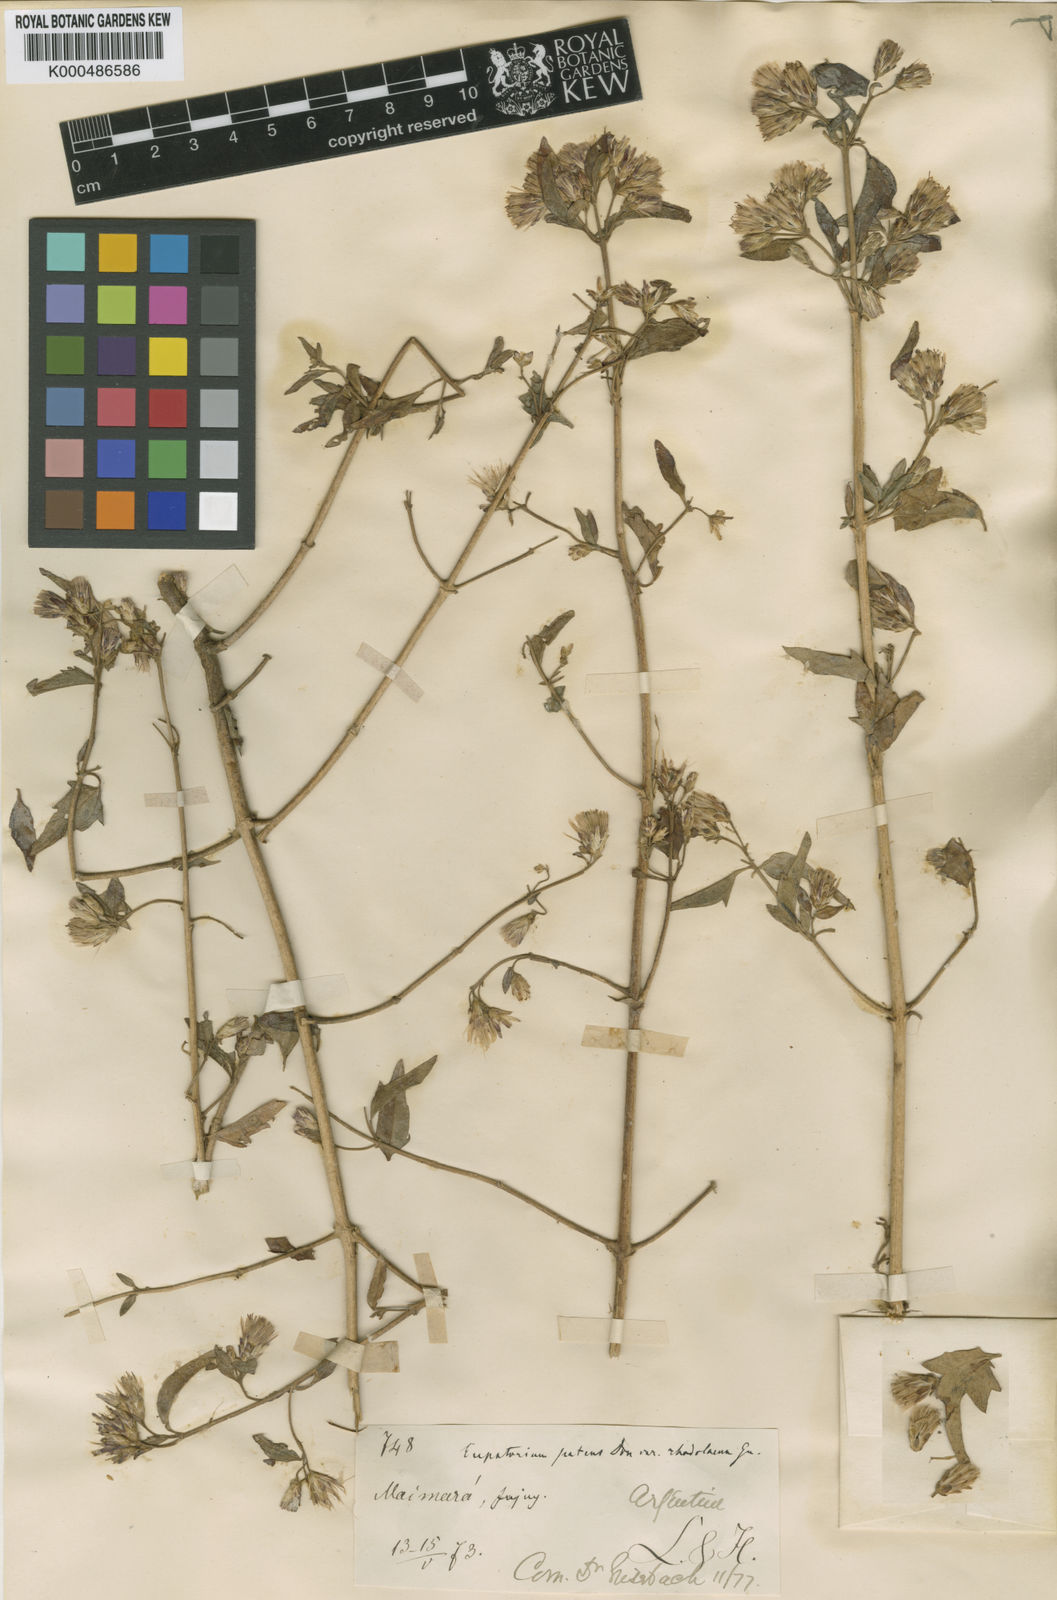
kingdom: Plantae
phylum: Tracheophyta
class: Magnoliopsida
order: Asterales
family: Asteraceae
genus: Austrobrickellia
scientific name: Austrobrickellia patens
